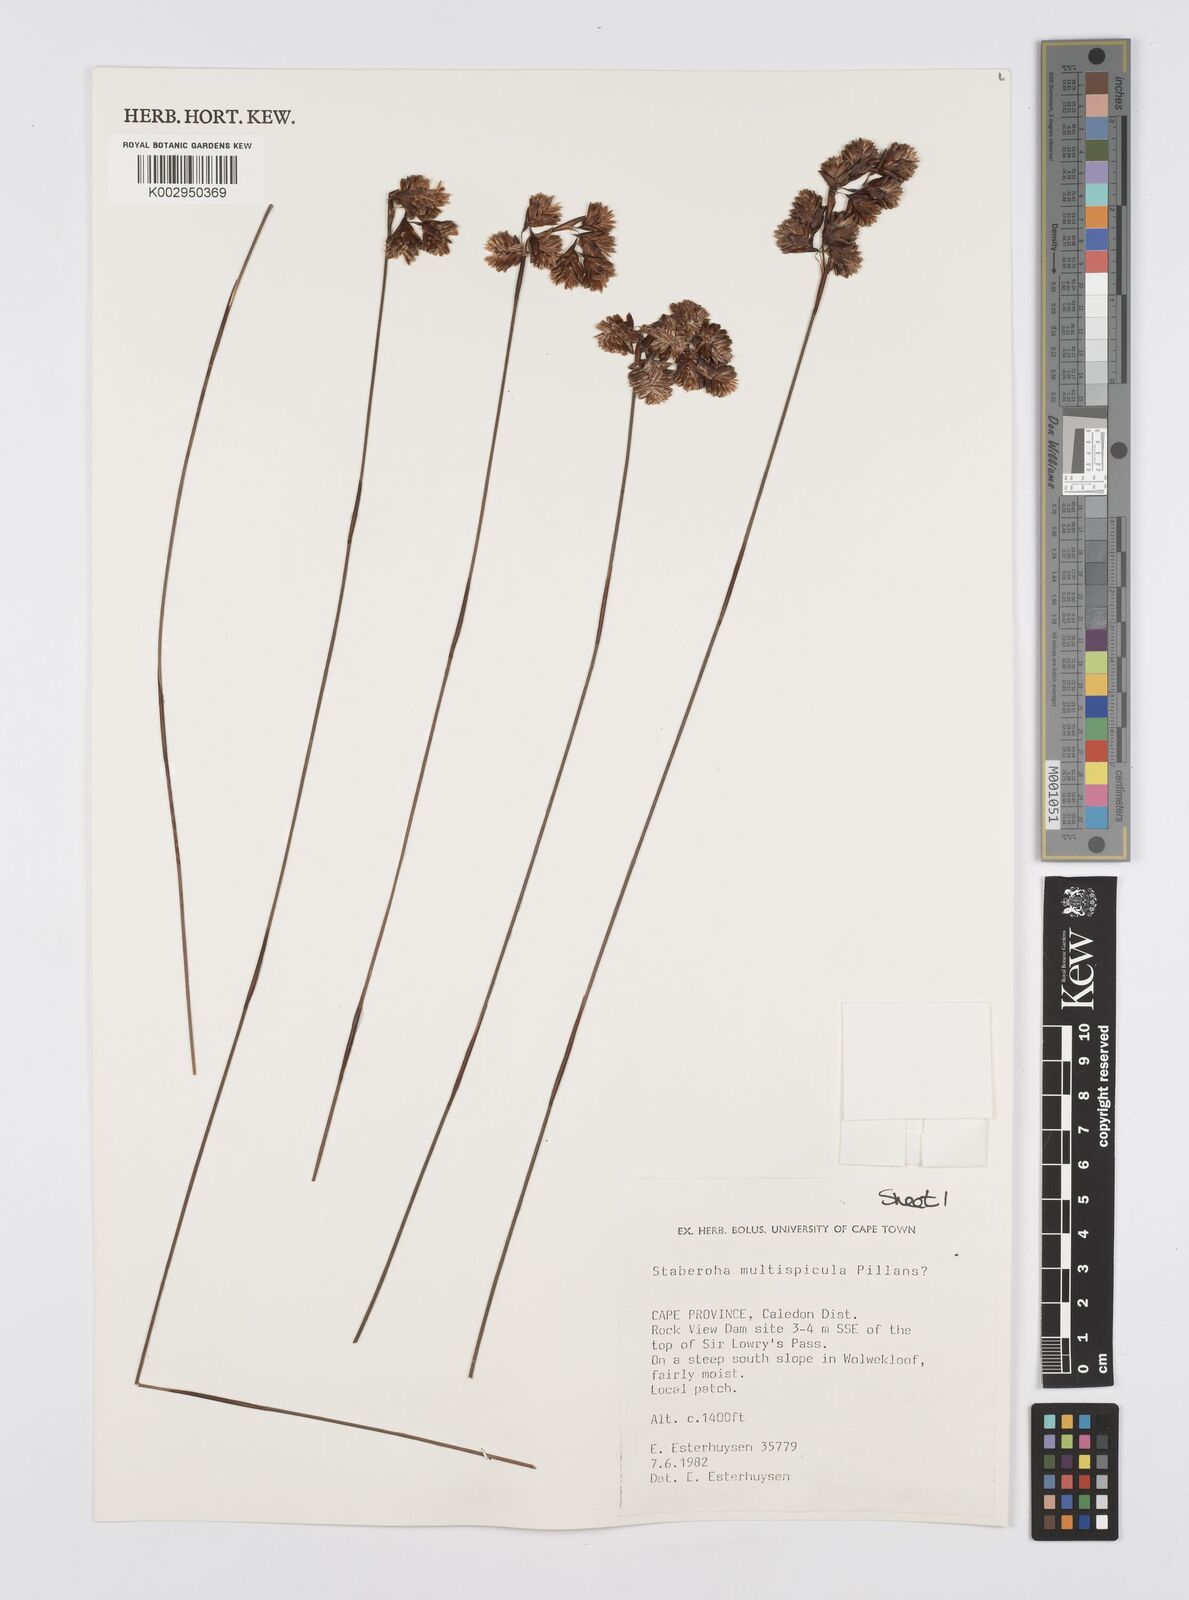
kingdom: Plantae
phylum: Tracheophyta
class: Liliopsida
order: Poales
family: Restionaceae
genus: Staberoha
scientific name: Staberoha multispicula
